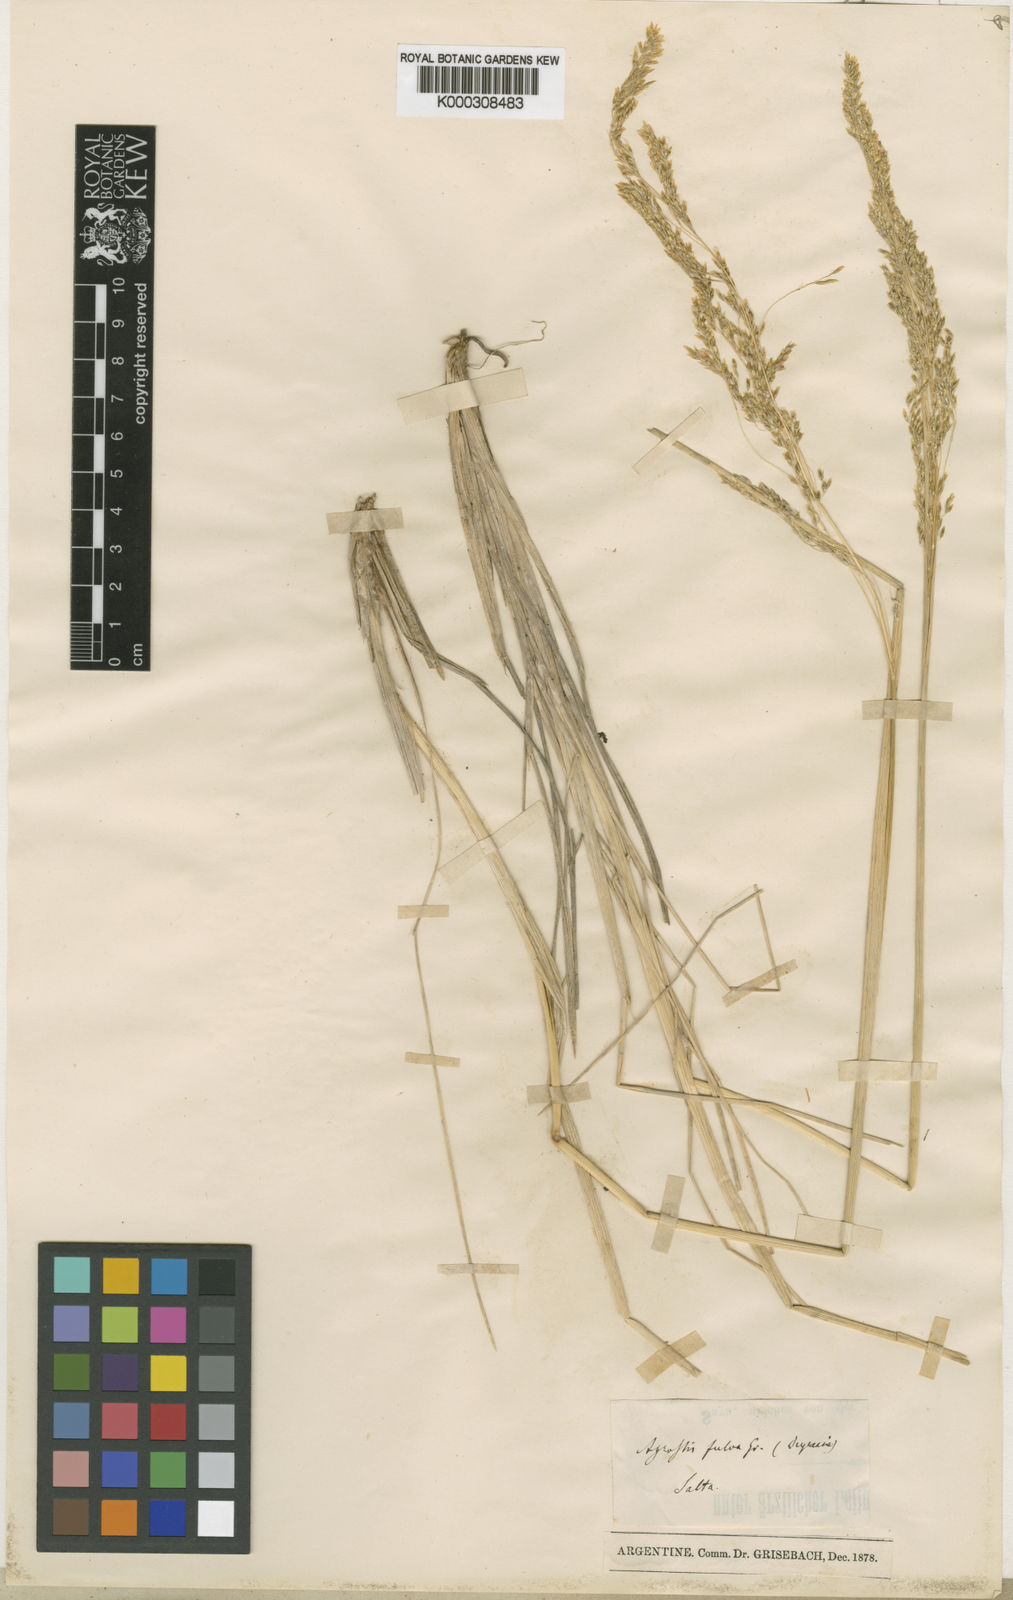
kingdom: Plantae
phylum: Tracheophyta
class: Liliopsida
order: Poales
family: Poaceae
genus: Deschampsia
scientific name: Deschampsia eminens
